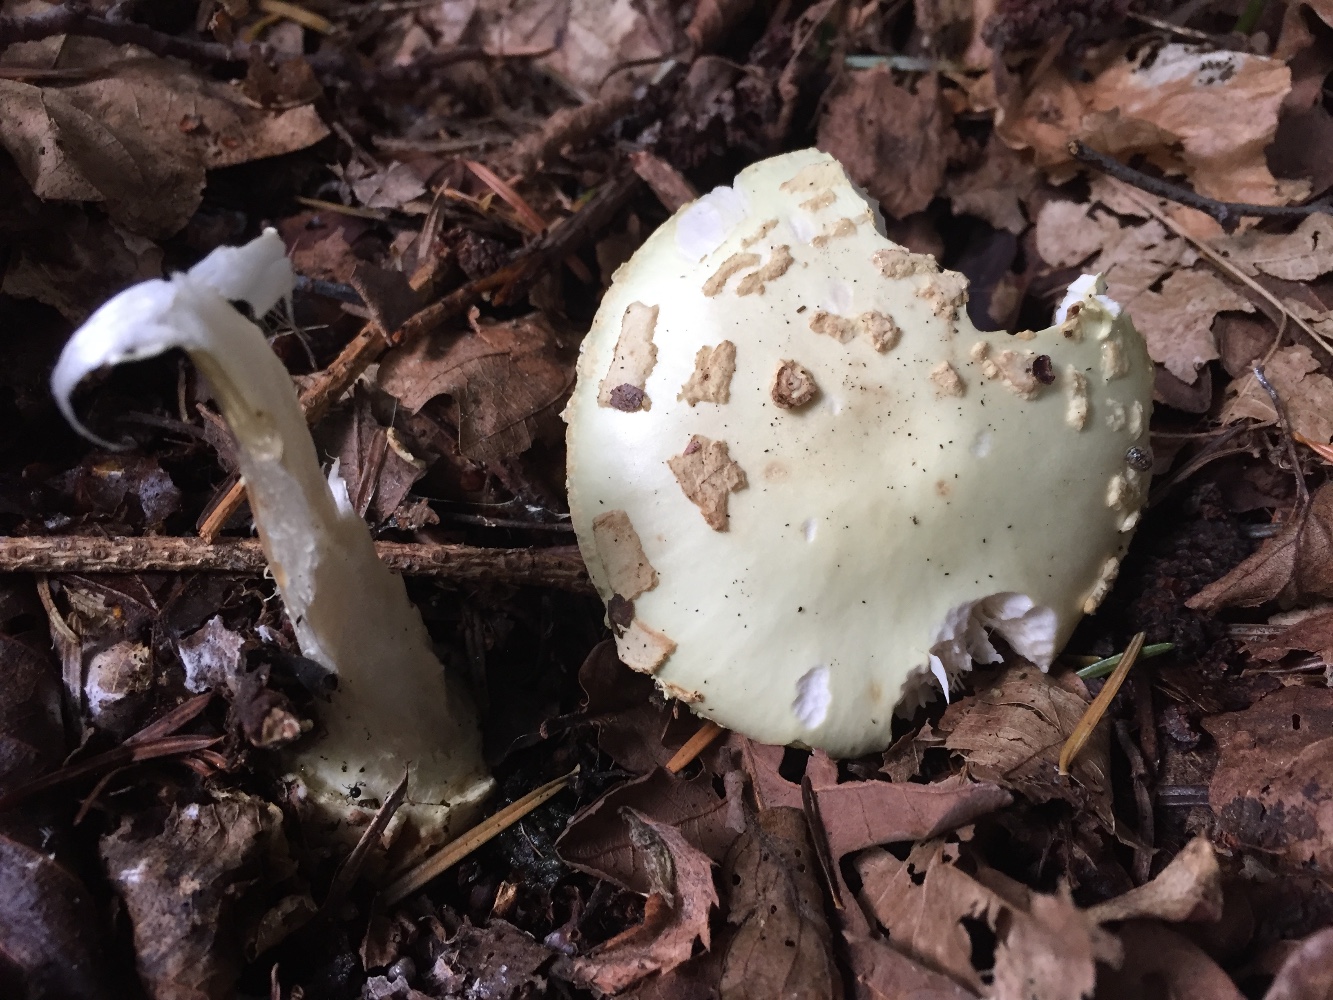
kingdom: Fungi
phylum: Basidiomycota
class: Agaricomycetes
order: Agaricales
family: Amanitaceae
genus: Amanita
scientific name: Amanita citrina
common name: kugleknoldet fluesvamp
